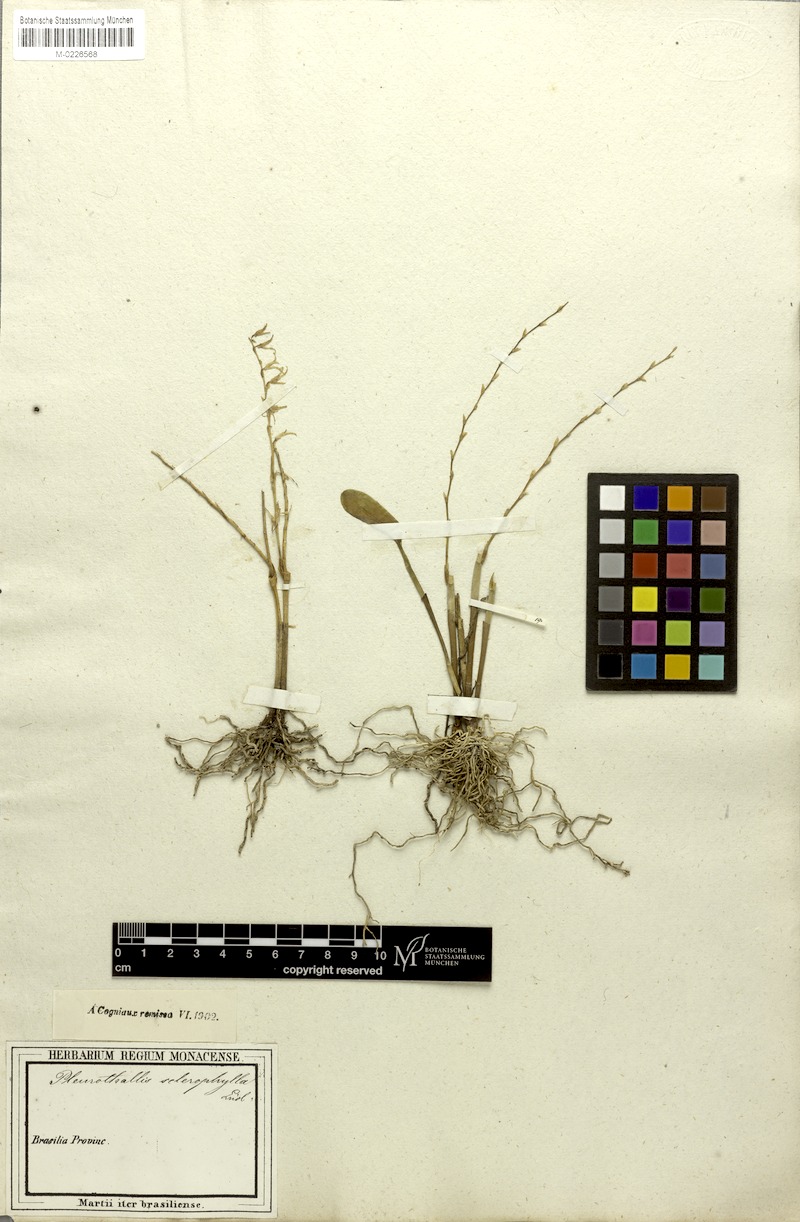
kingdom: Plantae
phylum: Tracheophyta
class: Liliopsida
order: Asparagales
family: Orchidaceae
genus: Stelis
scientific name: Stelis sclerophylla
